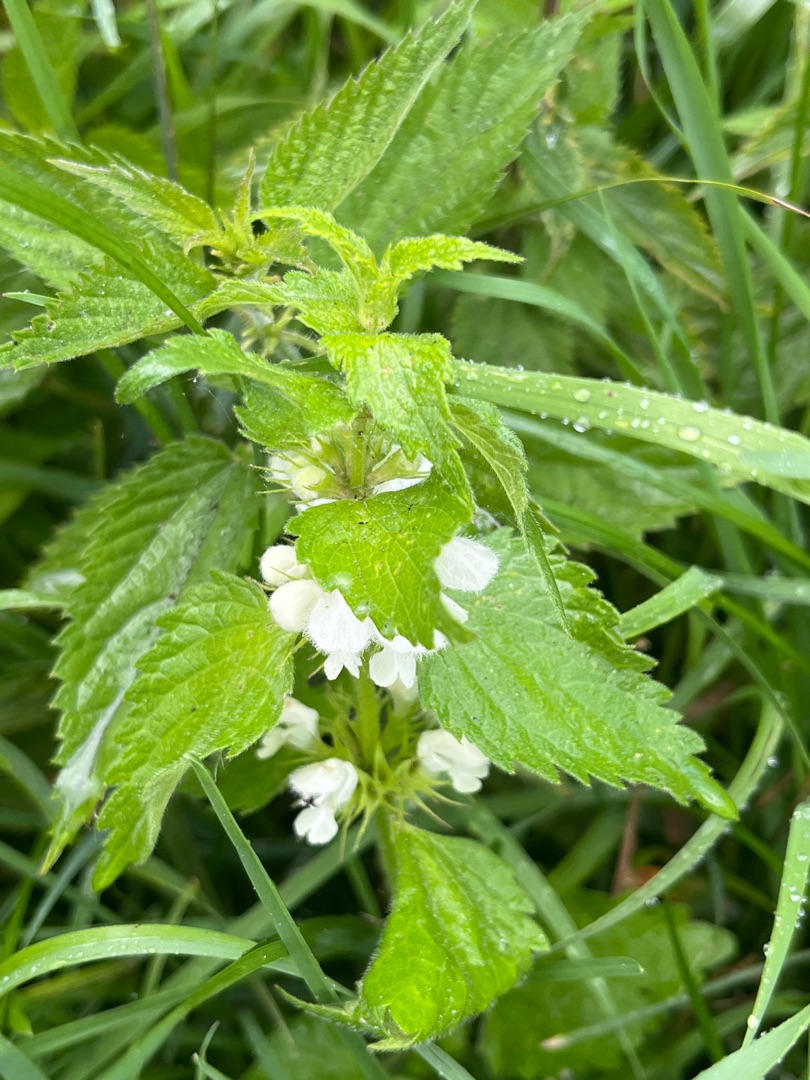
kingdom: Plantae
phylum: Tracheophyta
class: Magnoliopsida
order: Lamiales
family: Lamiaceae
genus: Lamium
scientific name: Lamium album
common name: Døvnælde
